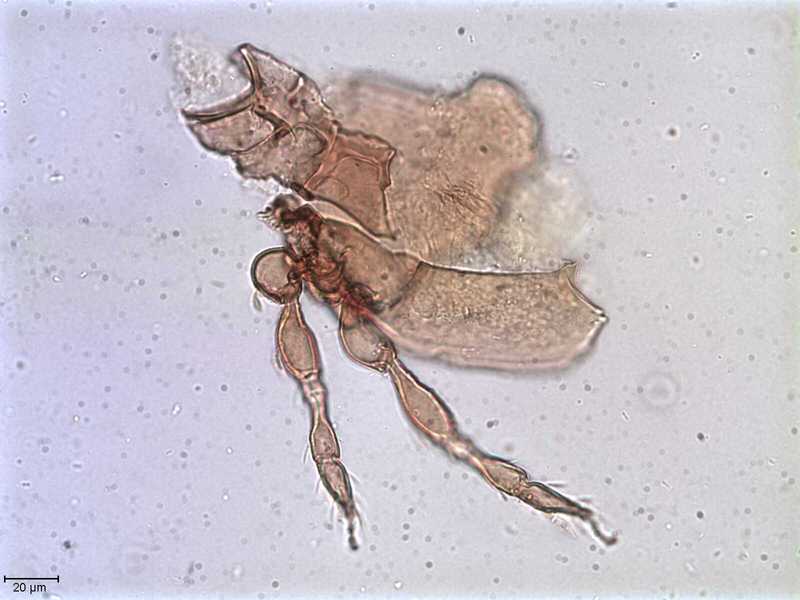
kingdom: Animalia
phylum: Arthropoda
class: Arachnida
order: Sarcoptiformes
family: Oppiidae
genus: Oppiella
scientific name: Oppiella
